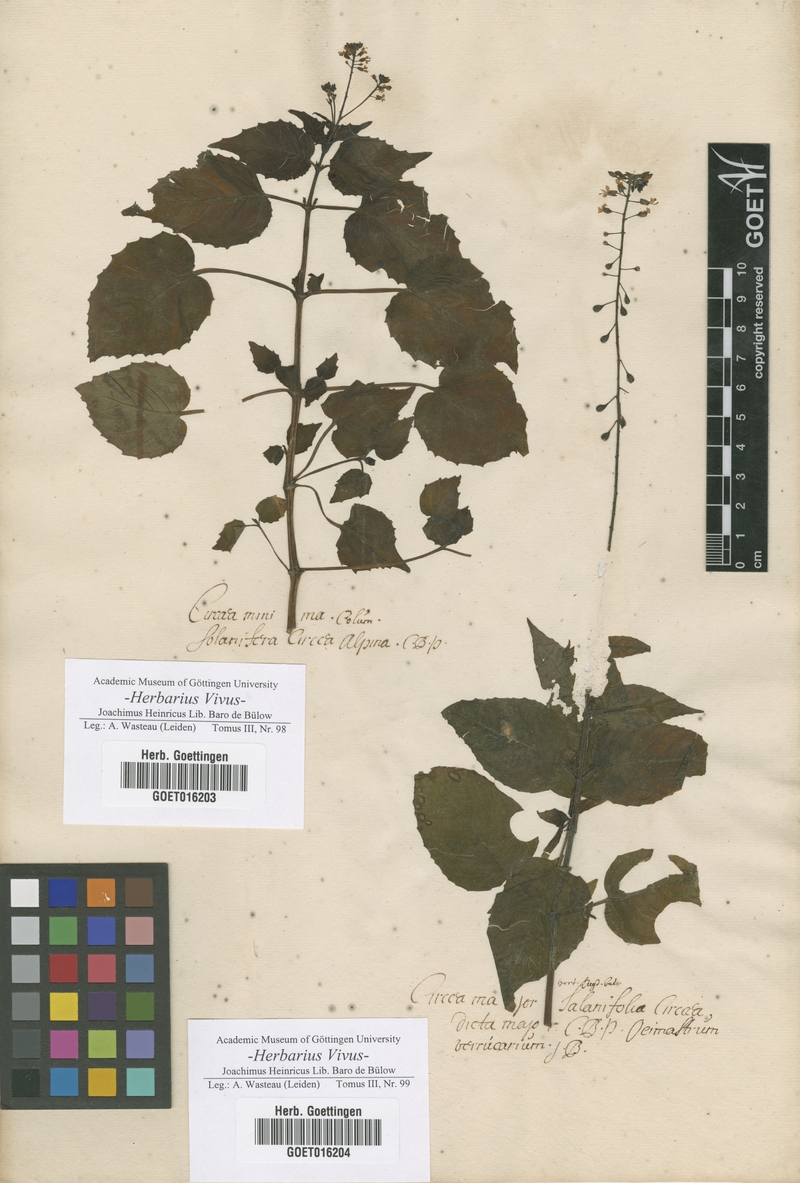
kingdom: Plantae
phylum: Tracheophyta
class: Magnoliopsida
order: Myrtales
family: Onagraceae
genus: Circaea
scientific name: Circaea alpina
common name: Alpine enchanter's-nightshade
